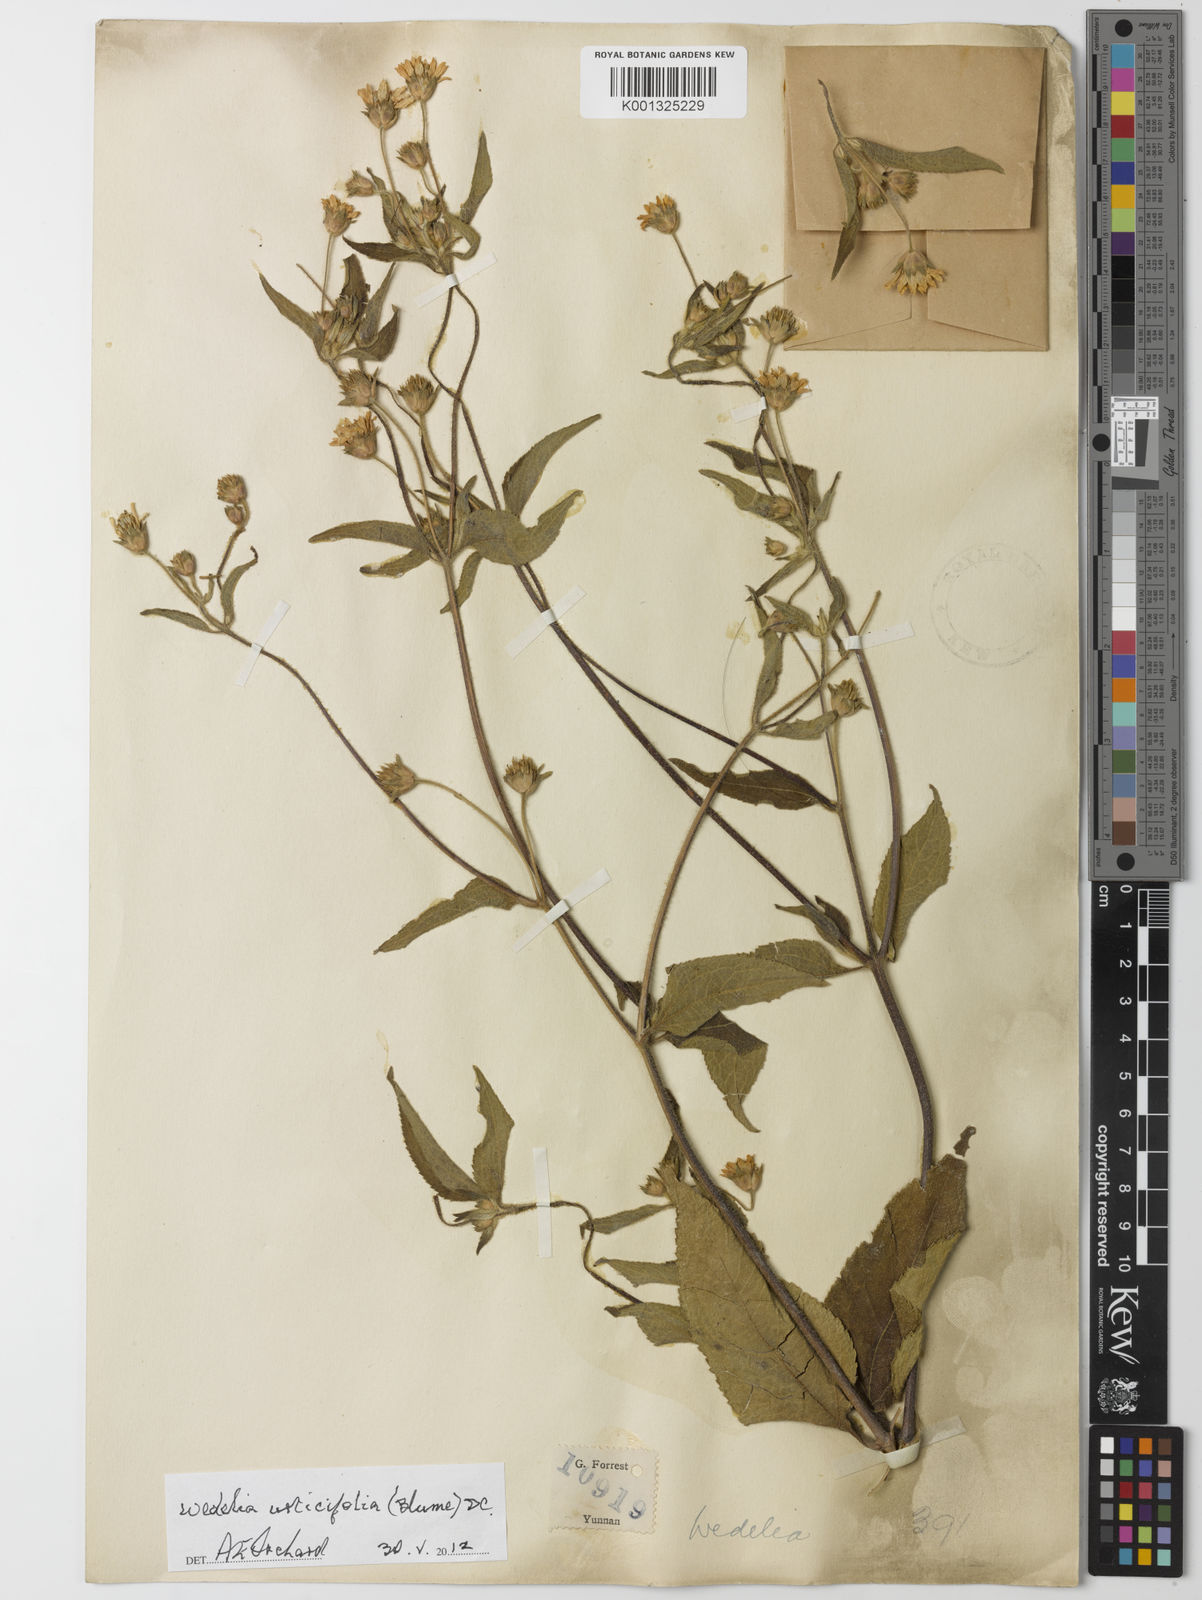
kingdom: Plantae
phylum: Tracheophyta
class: Magnoliopsida
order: Asterales
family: Asteraceae
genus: Lipoblepharis
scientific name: Lipoblepharis urticifolia
